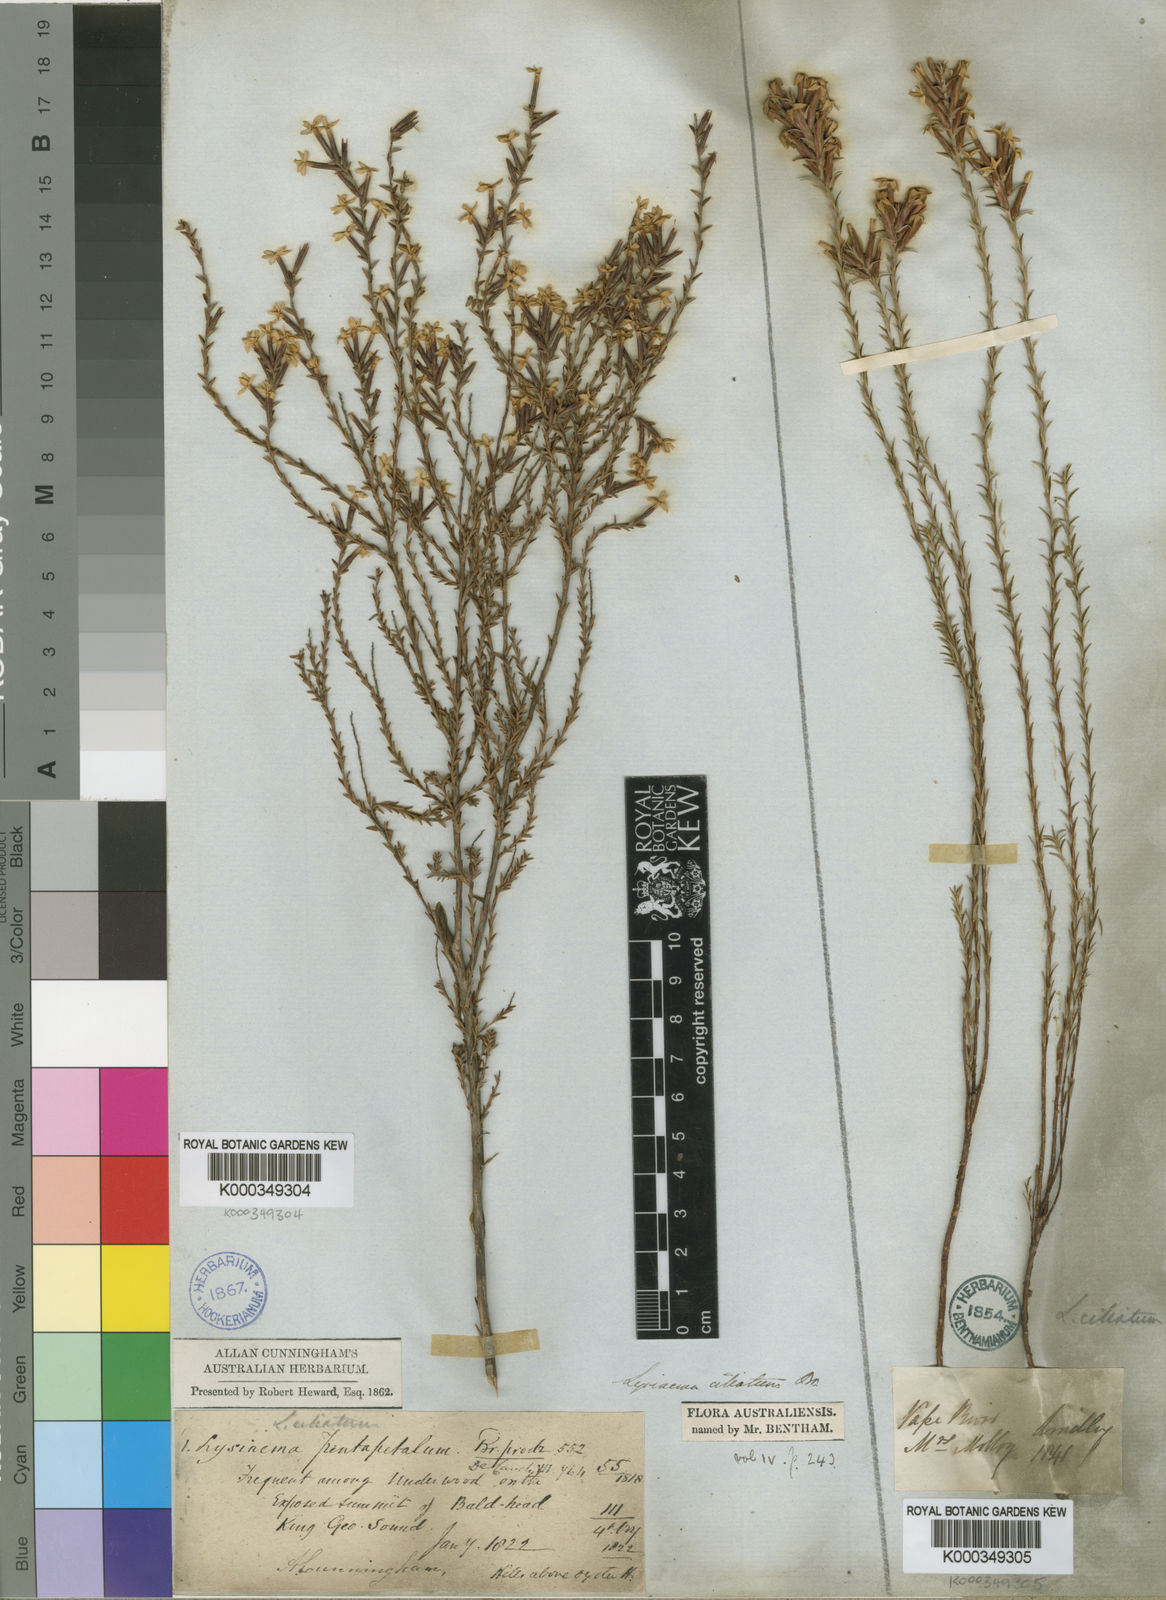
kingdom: Plantae
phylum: Tracheophyta
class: Magnoliopsida
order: Ericales
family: Ericaceae
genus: Lysinema
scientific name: Lysinema ciliatum
